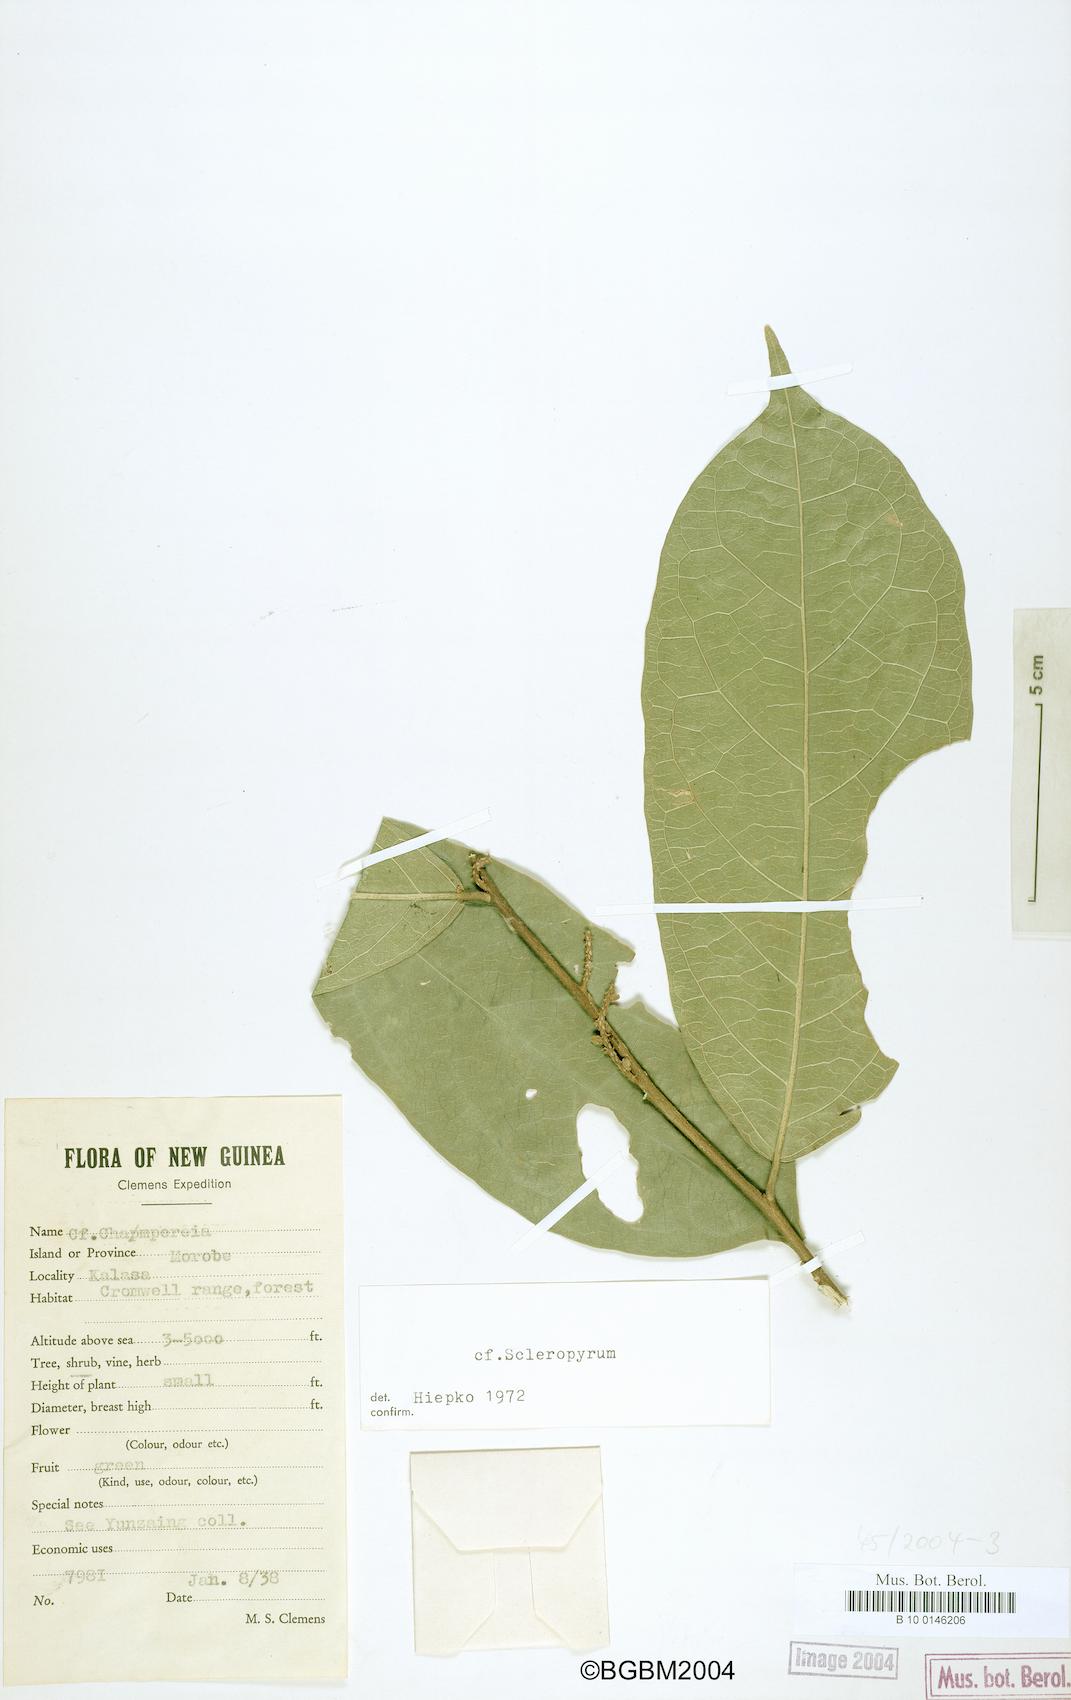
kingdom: Plantae
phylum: Tracheophyta
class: Magnoliopsida
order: Santalales
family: Cervantesiaceae
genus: Scleropyrum
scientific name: Scleropyrum
